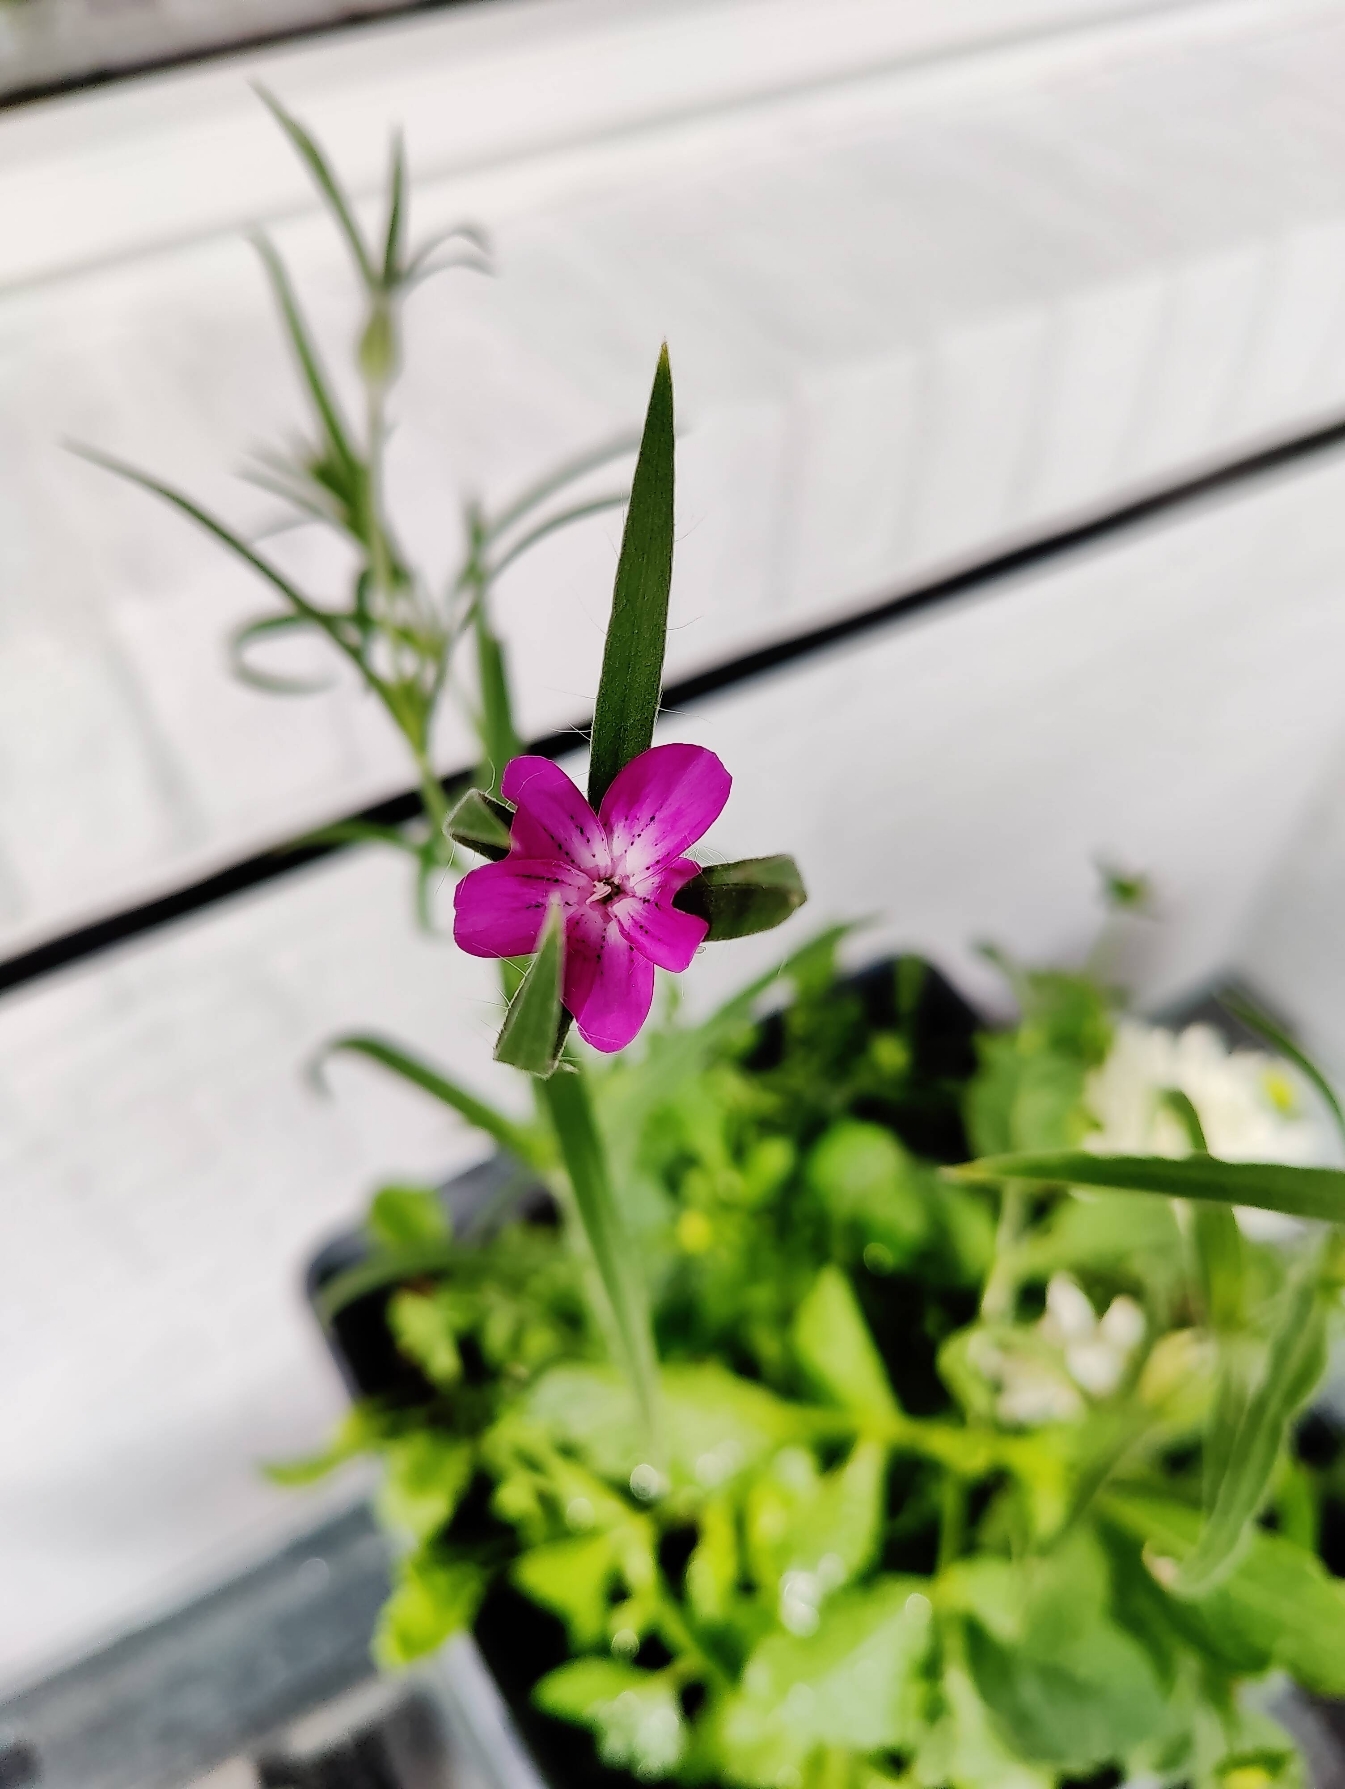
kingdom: Plantae
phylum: Tracheophyta
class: Magnoliopsida
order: Caryophyllales
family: Caryophyllaceae
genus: Agrostemma
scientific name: Agrostemma githago
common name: Klinte
